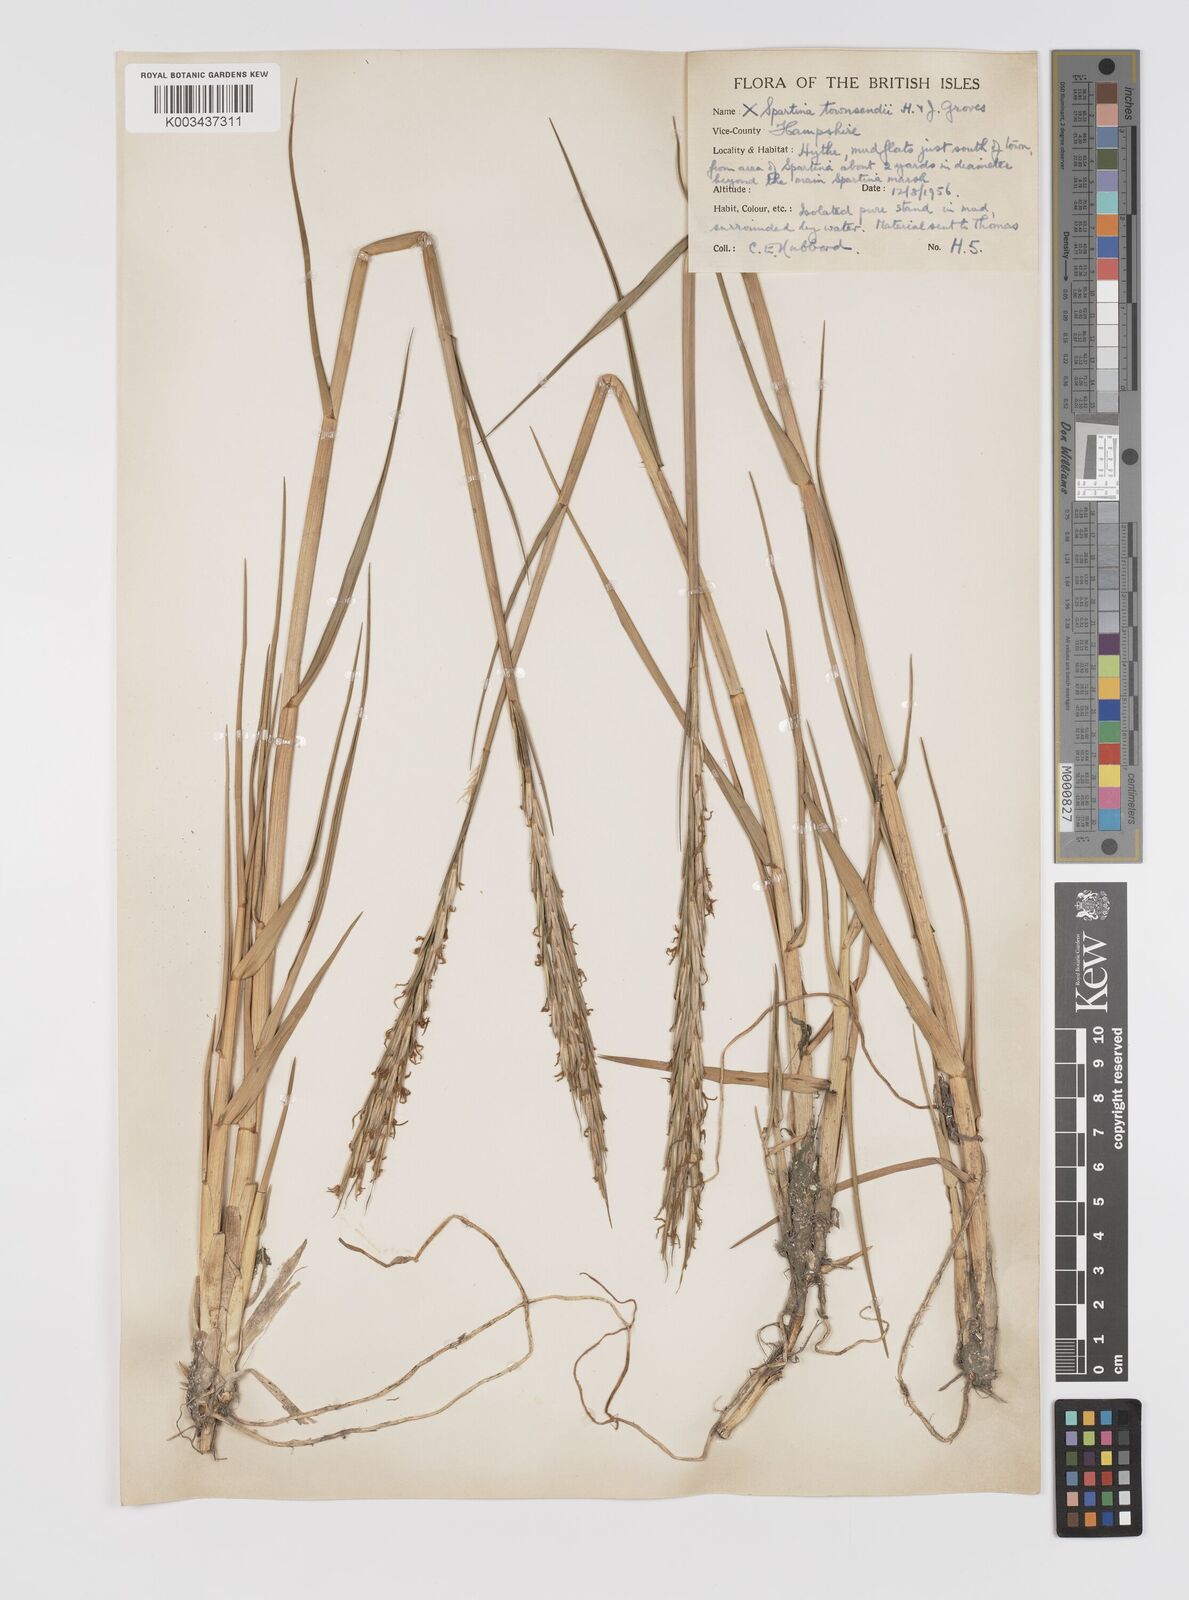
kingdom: Plantae
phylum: Tracheophyta
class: Liliopsida
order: Poales
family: Poaceae
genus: Sporobolus
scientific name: Sporobolus townsendii
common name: Townsend's cordgrass
